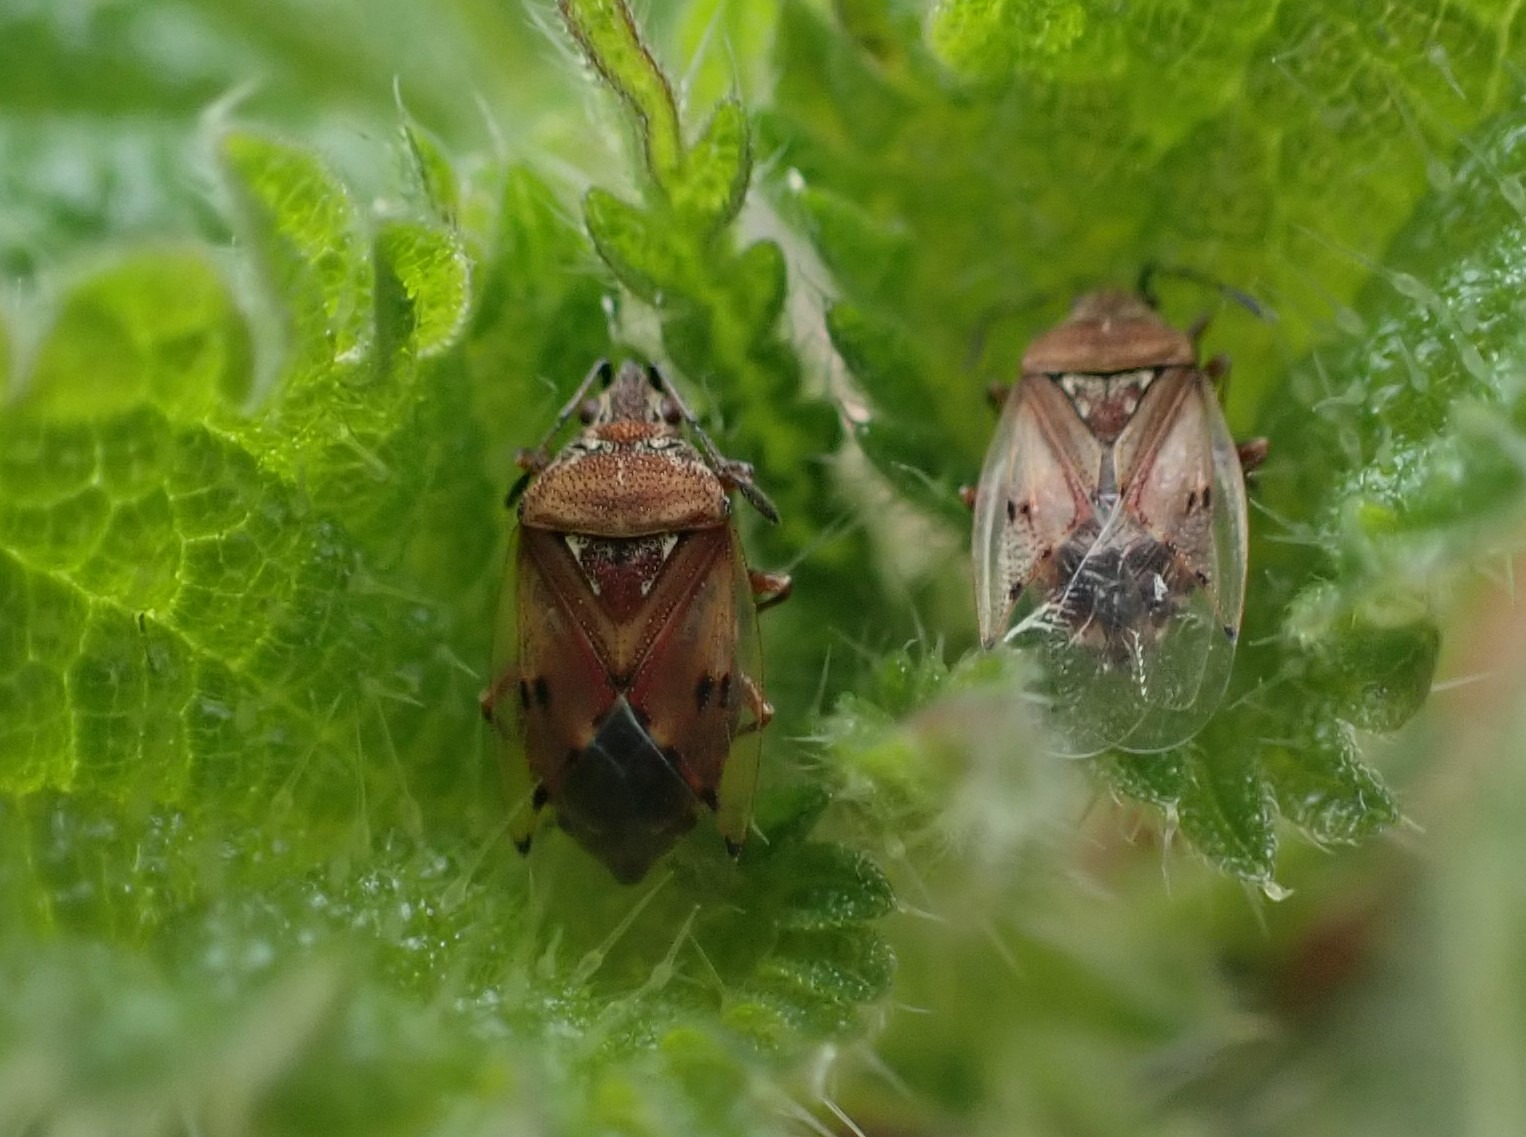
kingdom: Animalia
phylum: Arthropoda
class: Insecta
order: Hemiptera
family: Lygaeidae
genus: Kleidocerys
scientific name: Kleidocerys resedae
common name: Birkefrøtæge
